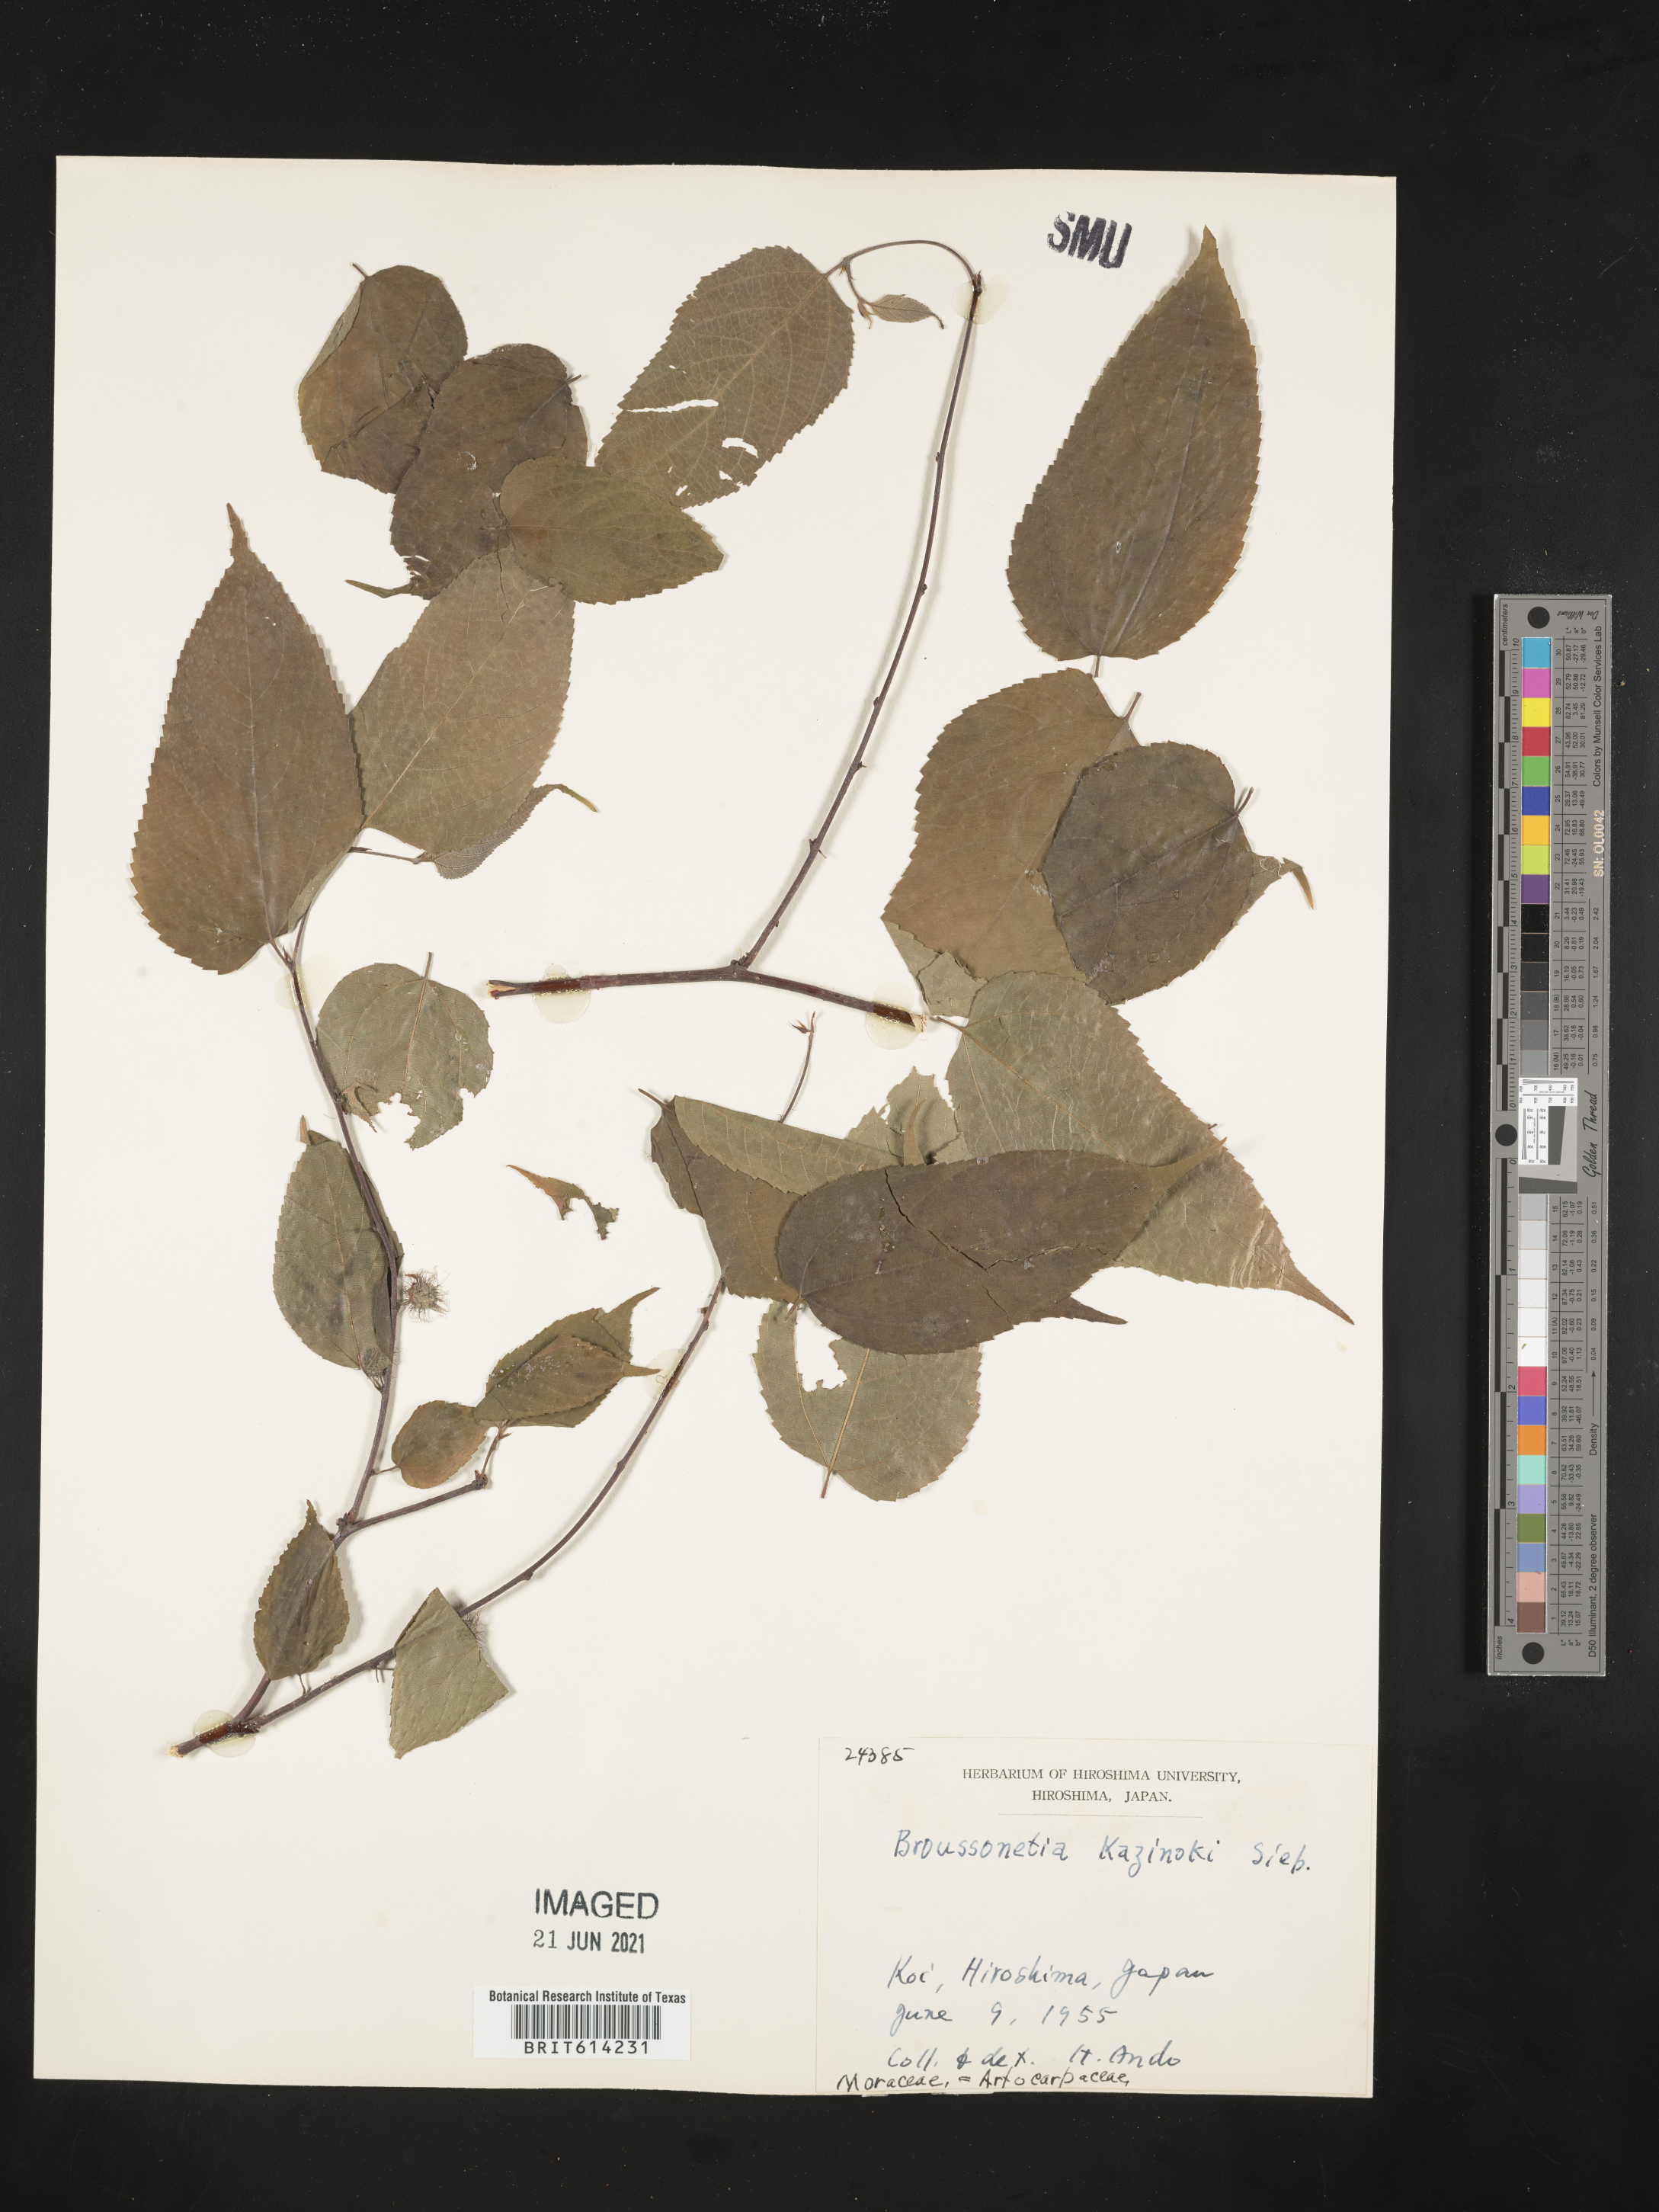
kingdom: Plantae
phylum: Tracheophyta
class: Magnoliopsida
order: Rosales
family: Moraceae
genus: Broussonetia
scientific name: Broussonetia kazinoki
